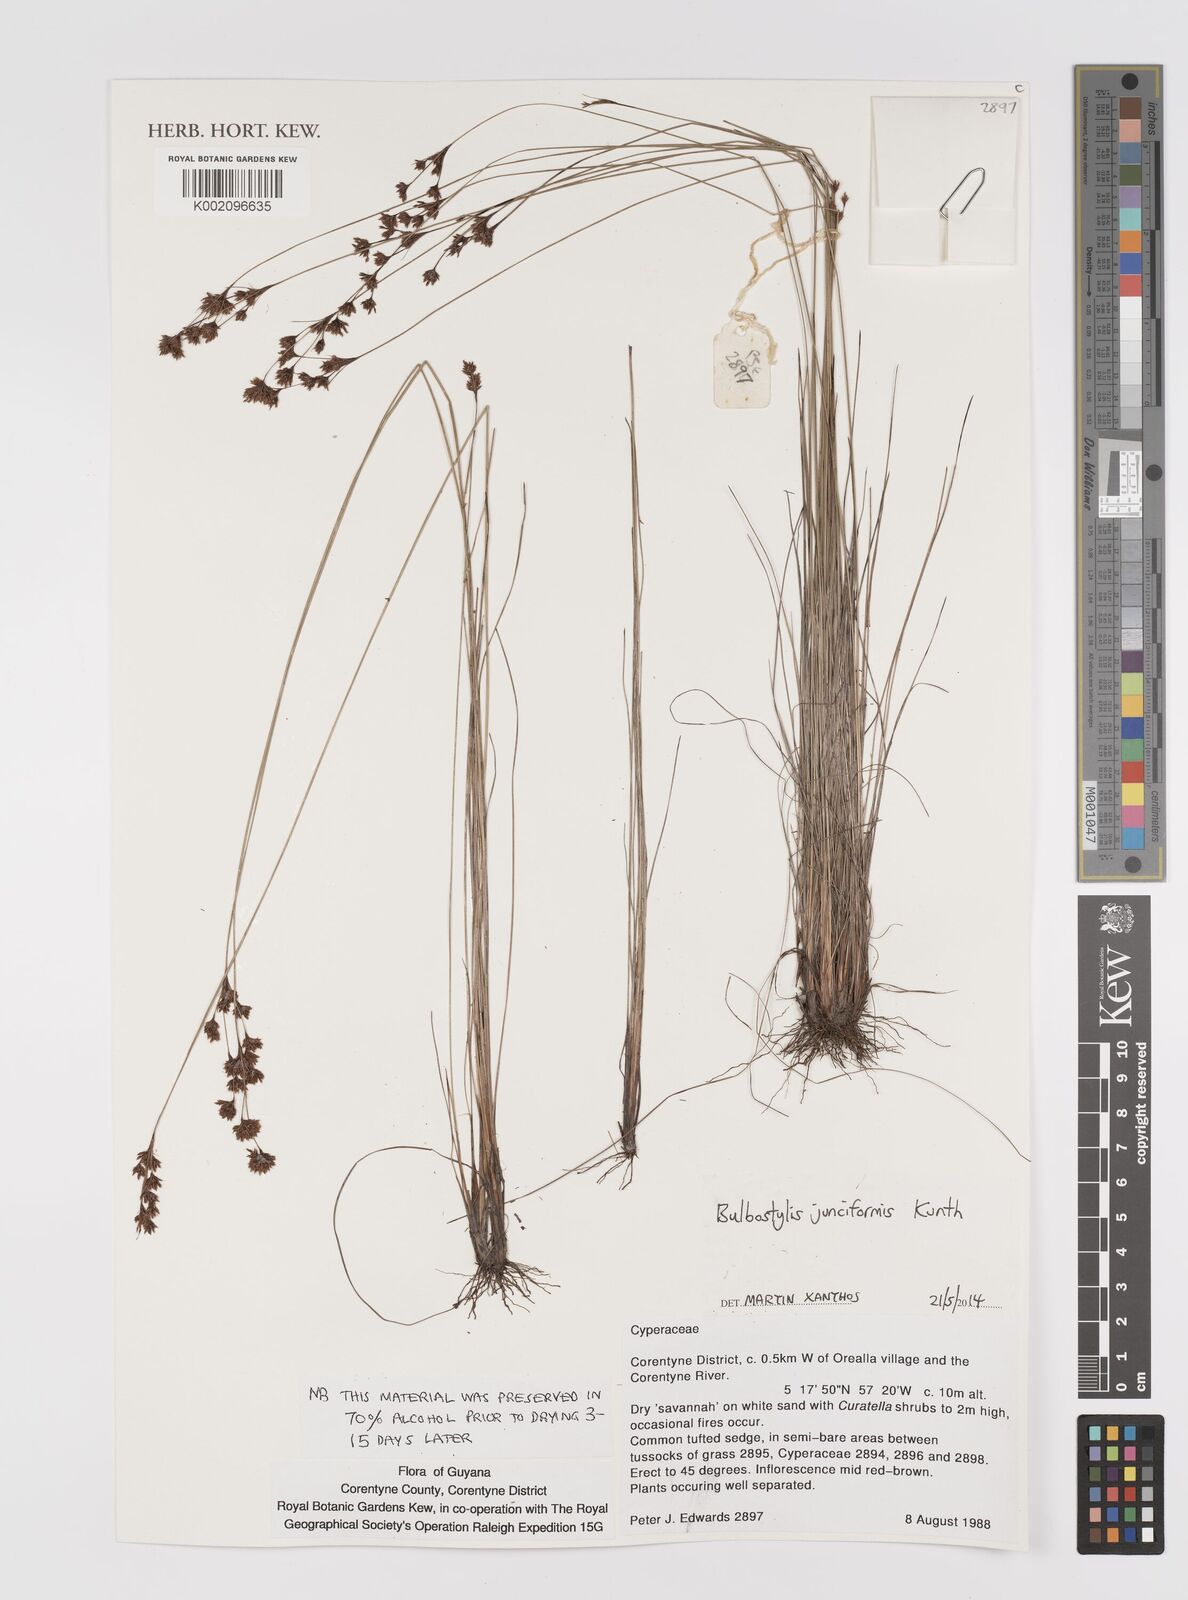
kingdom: Plantae
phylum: Tracheophyta
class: Liliopsida
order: Poales
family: Cyperaceae
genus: Bulbostylis
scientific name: Bulbostylis junciformis
